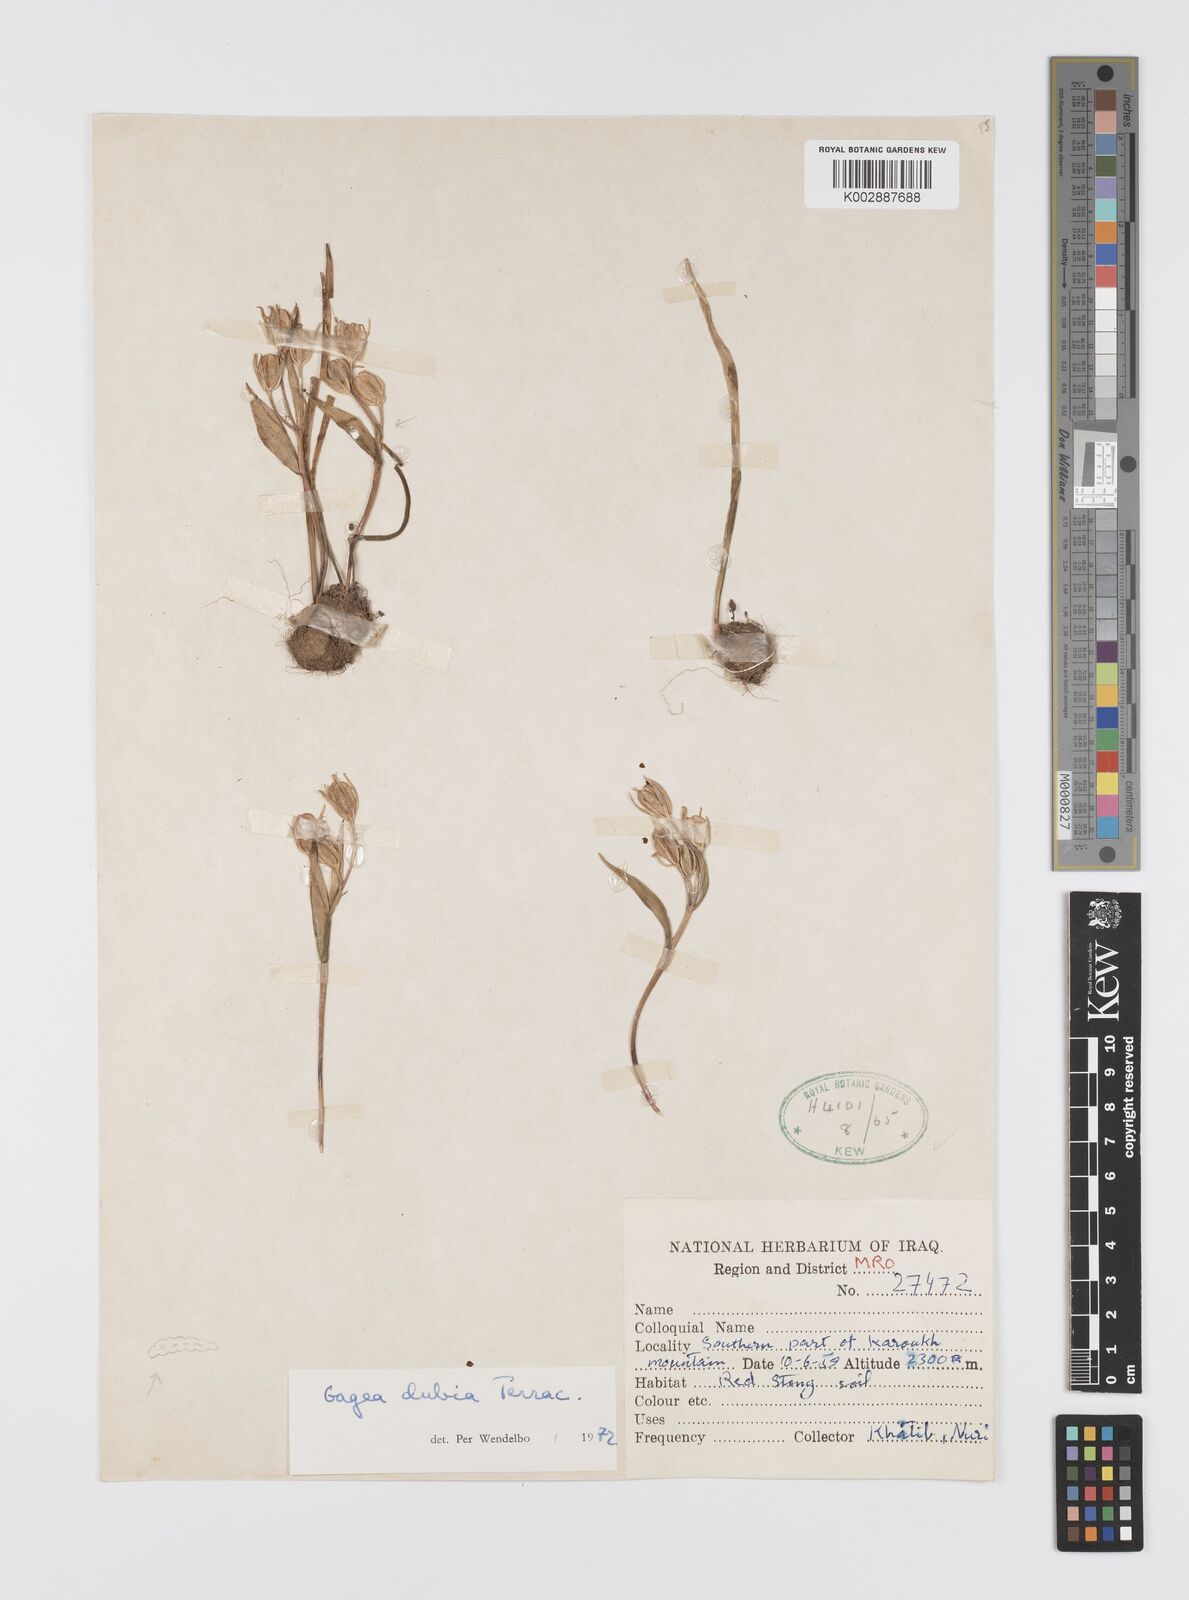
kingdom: Plantae
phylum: Tracheophyta
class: Liliopsida
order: Liliales
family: Liliaceae
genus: Gagea
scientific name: Gagea dubia
